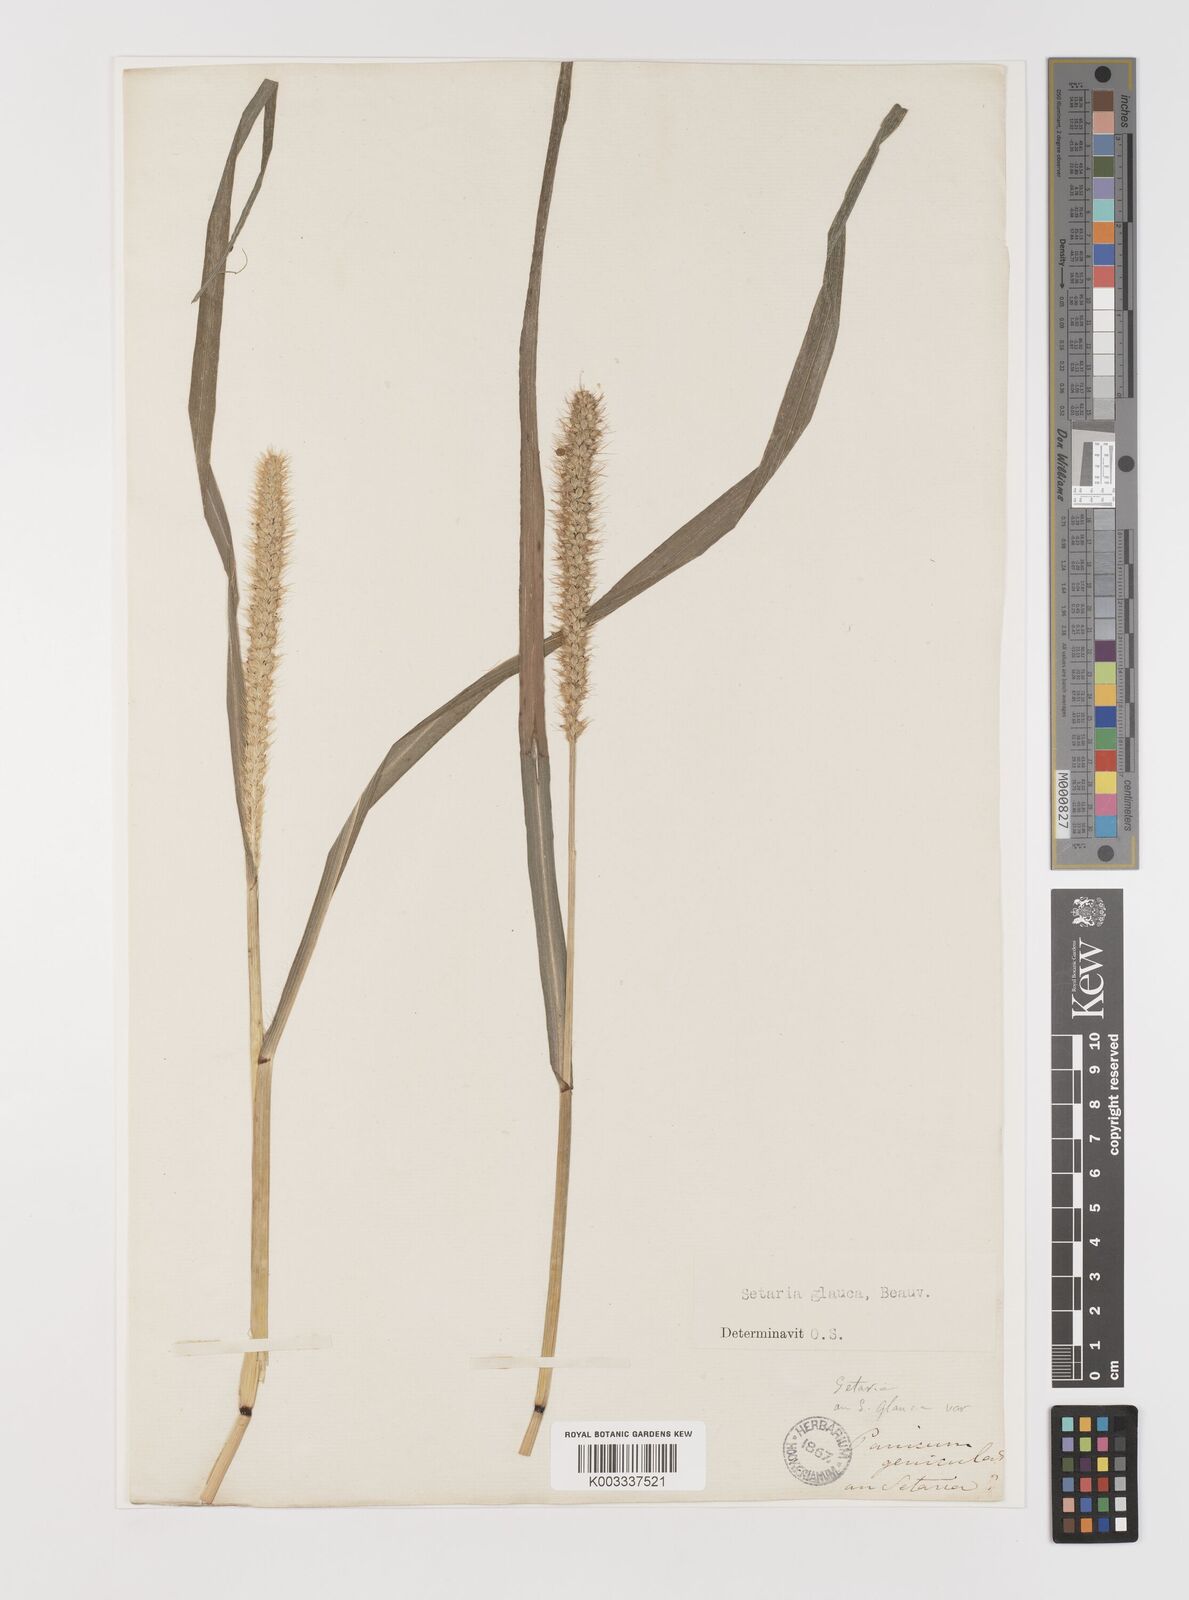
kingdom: Plantae
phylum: Tracheophyta
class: Liliopsida
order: Poales
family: Poaceae
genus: Setaria
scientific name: Setaria pumila
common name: Yellow bristle-grass
